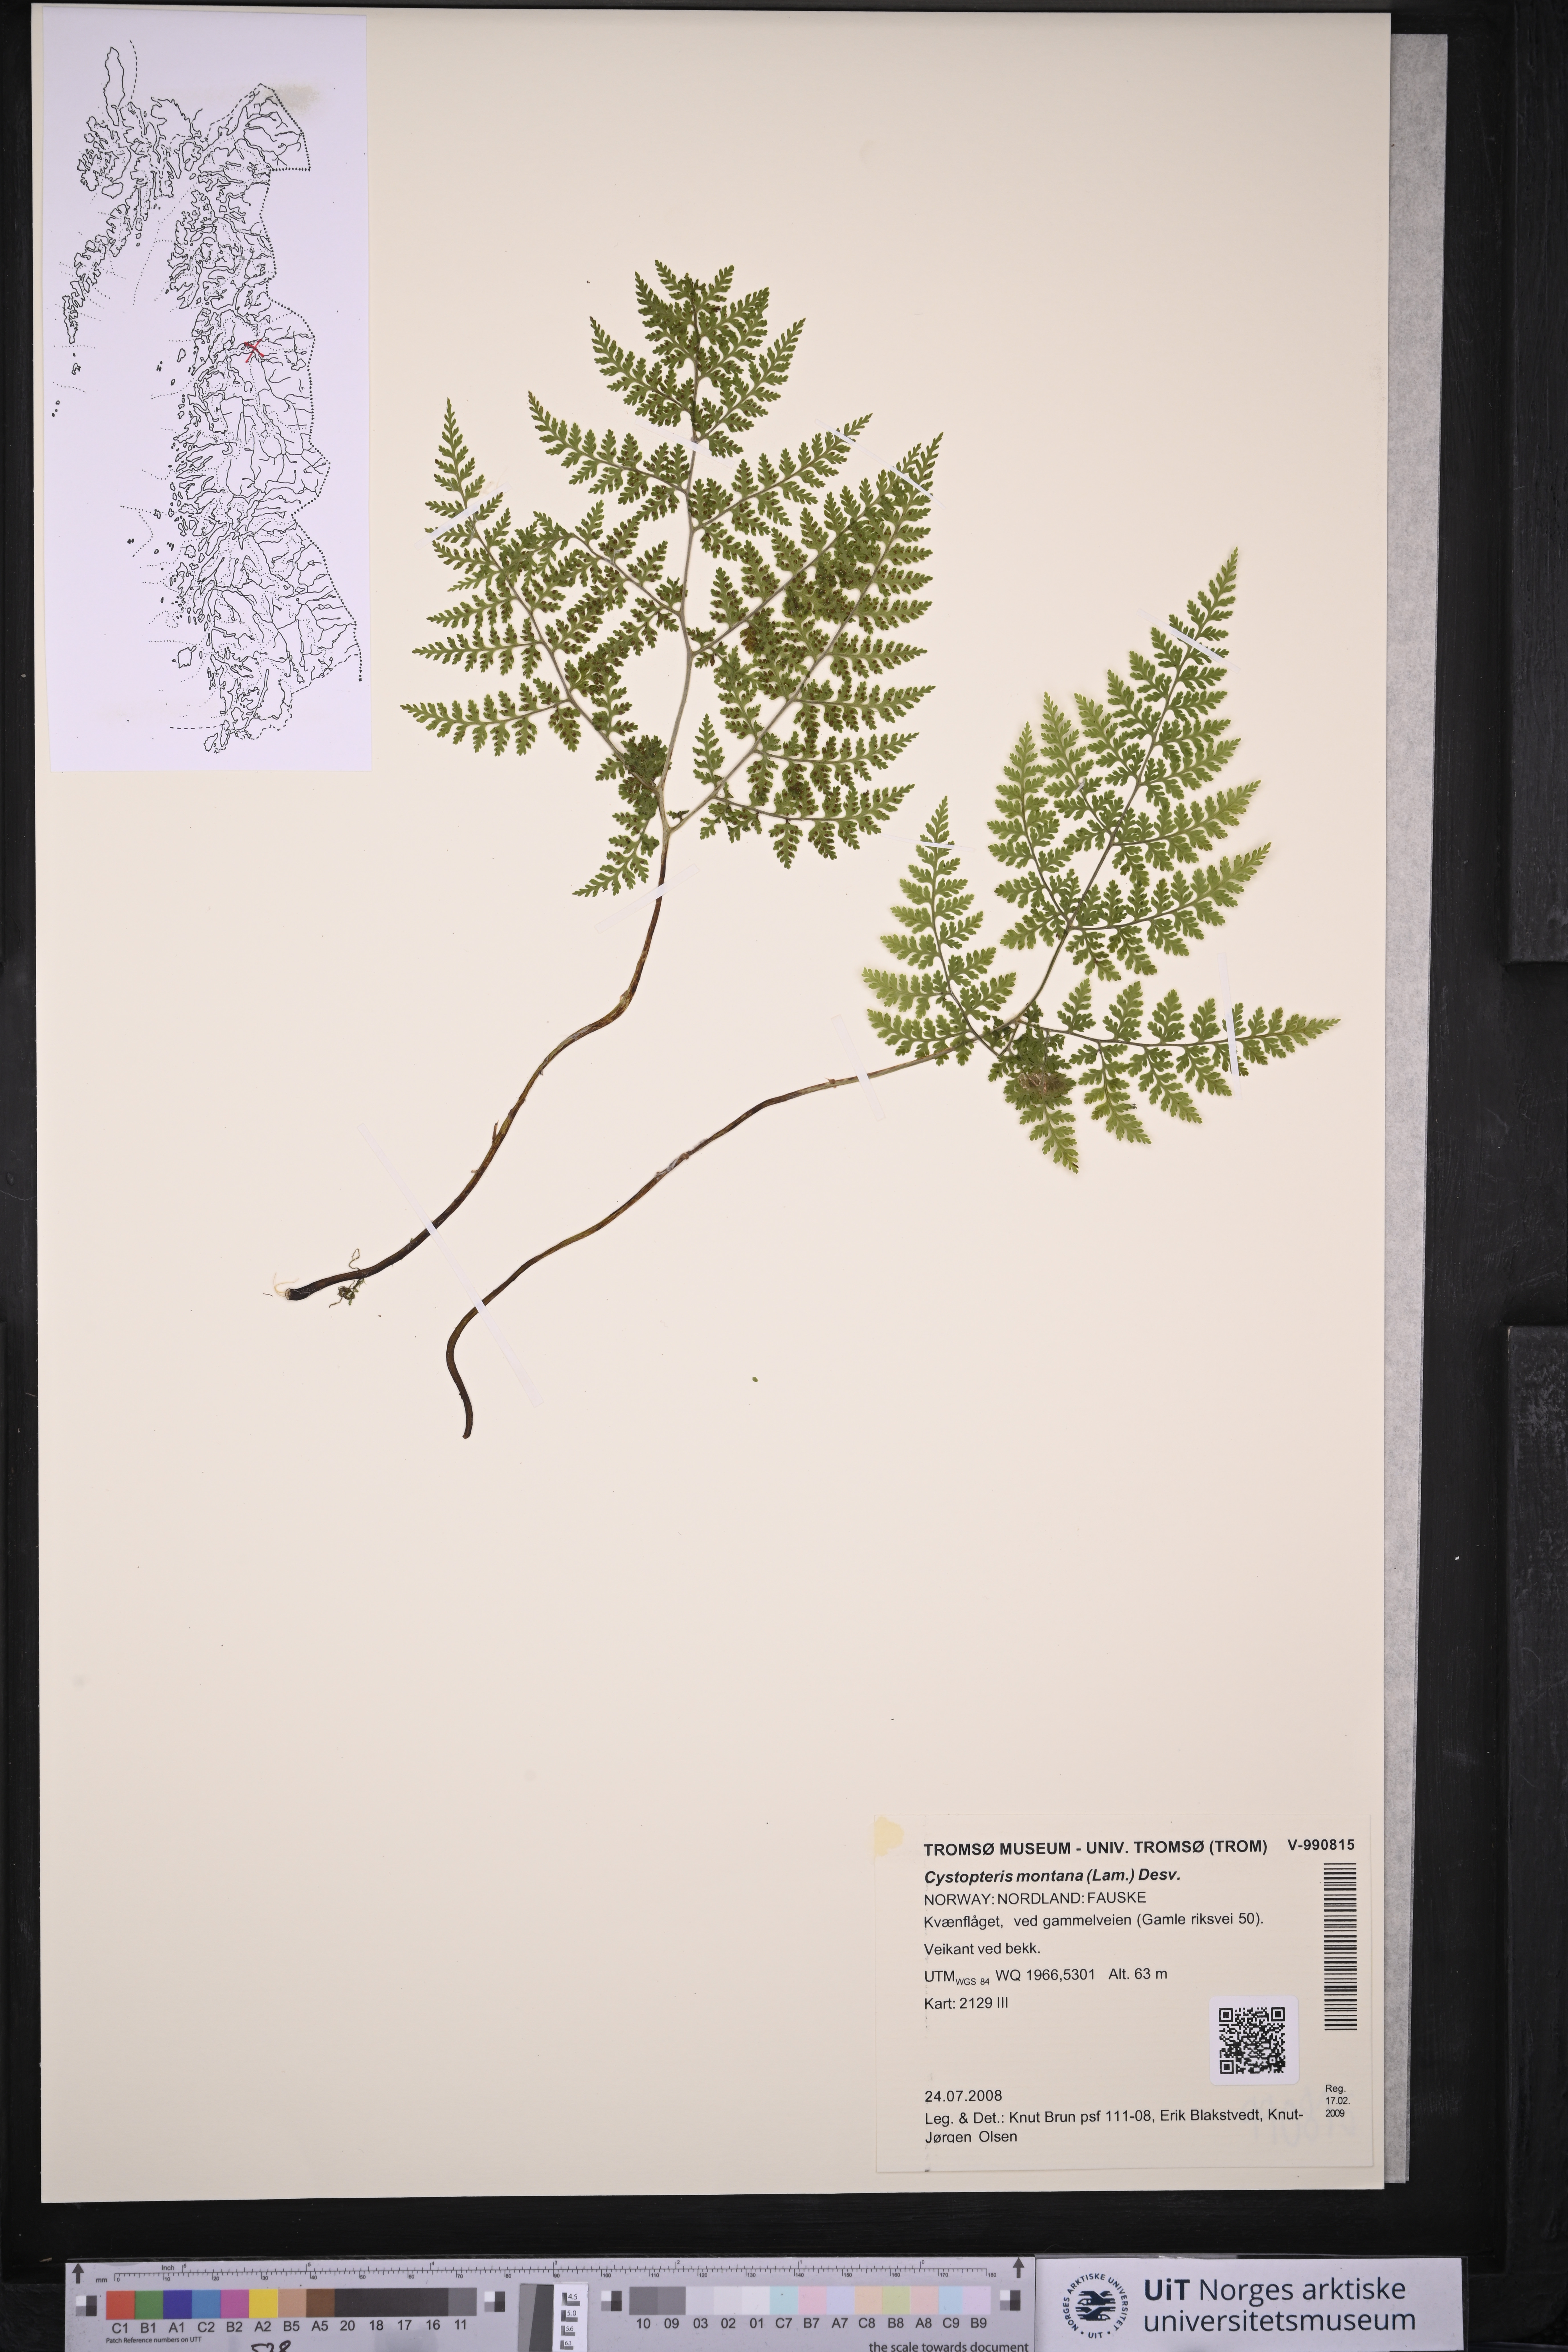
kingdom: Plantae
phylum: Tracheophyta
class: Polypodiopsida
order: Polypodiales
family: Cystopteridaceae
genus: Cystopteris
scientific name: Cystopteris montana
